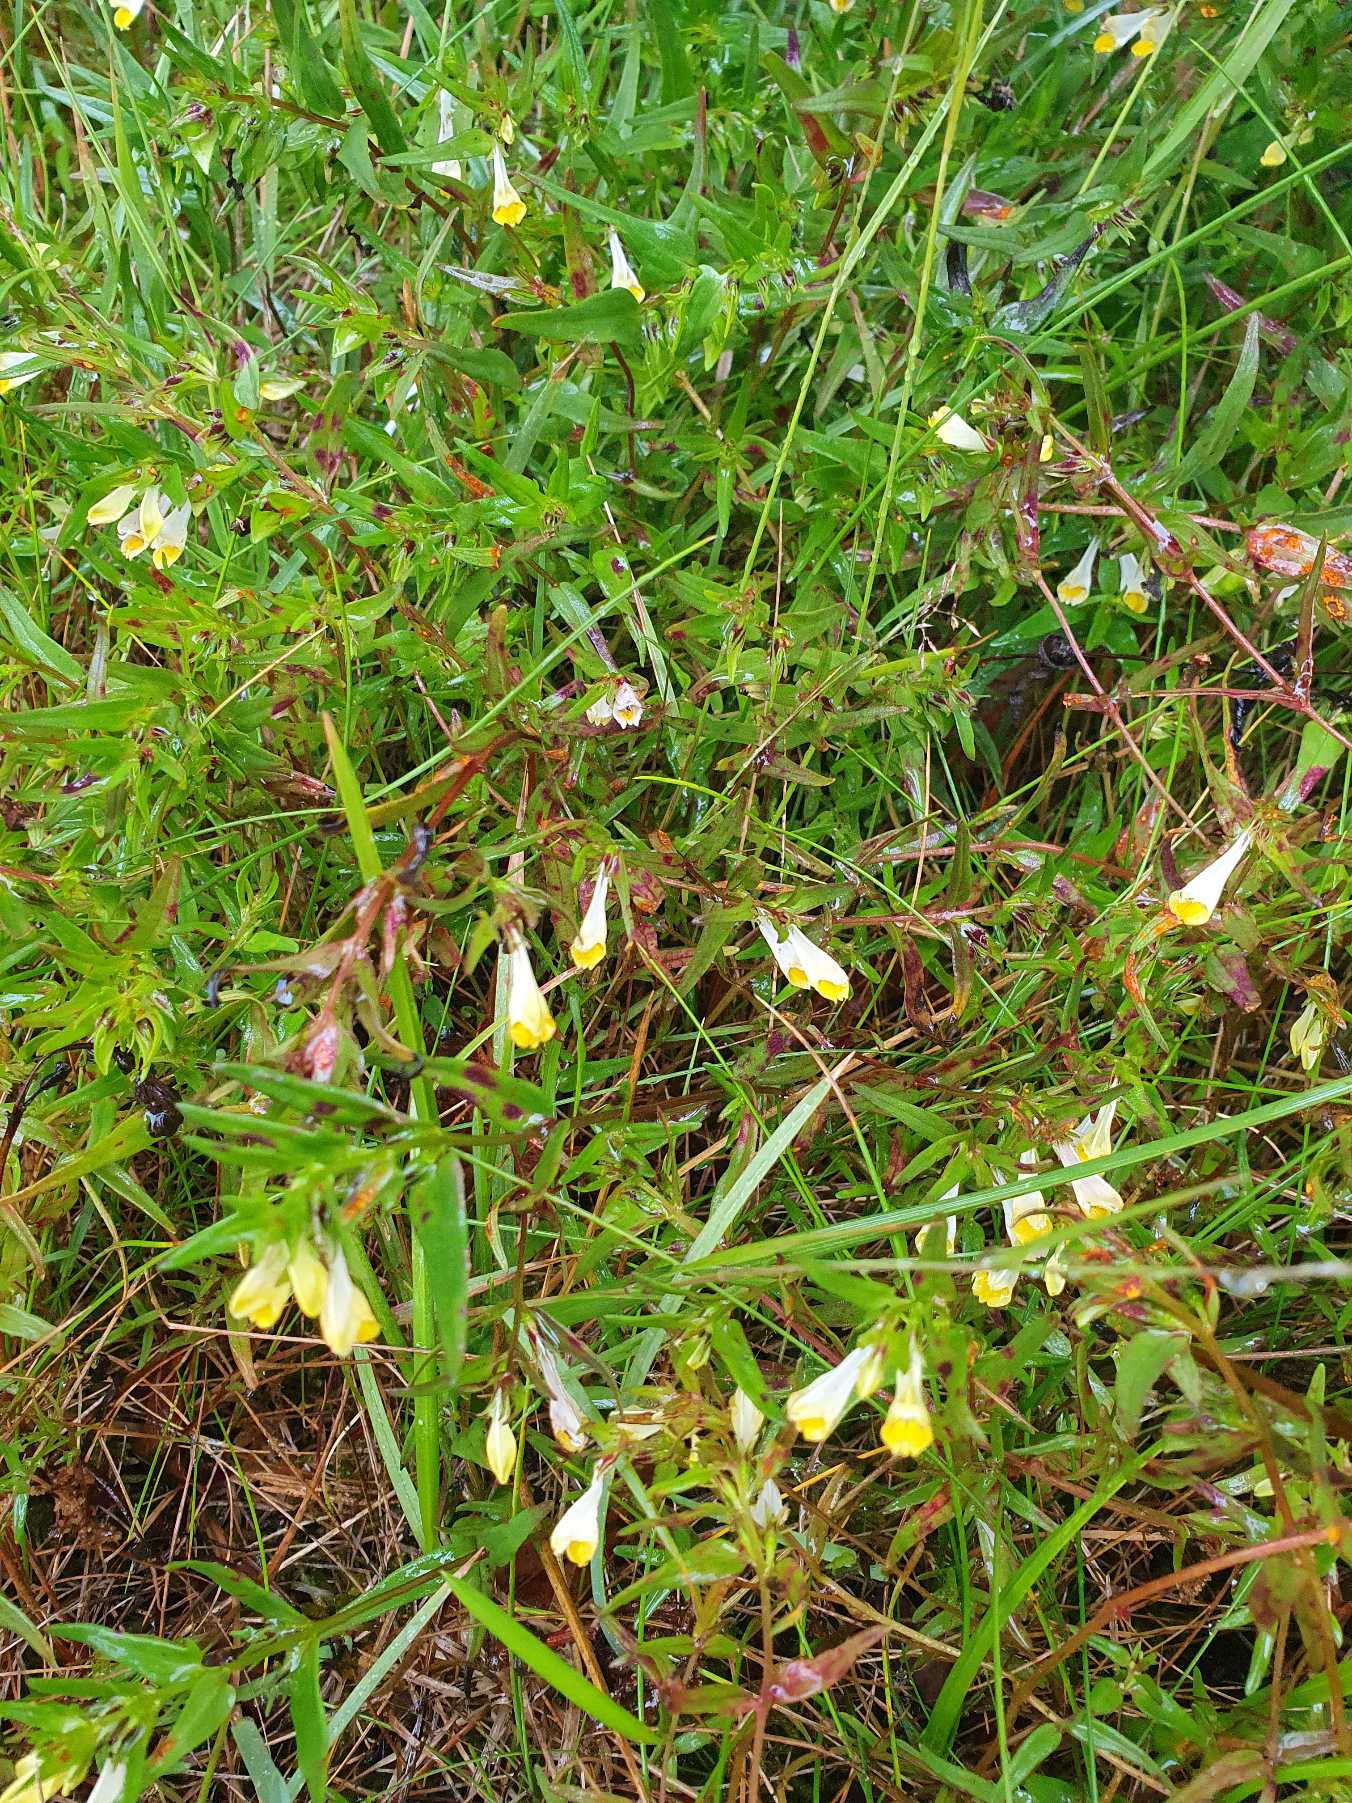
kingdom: Plantae
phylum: Tracheophyta
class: Magnoliopsida
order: Lamiales
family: Orobanchaceae
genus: Melampyrum
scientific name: Melampyrum pratense
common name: Almindelig kohvede
